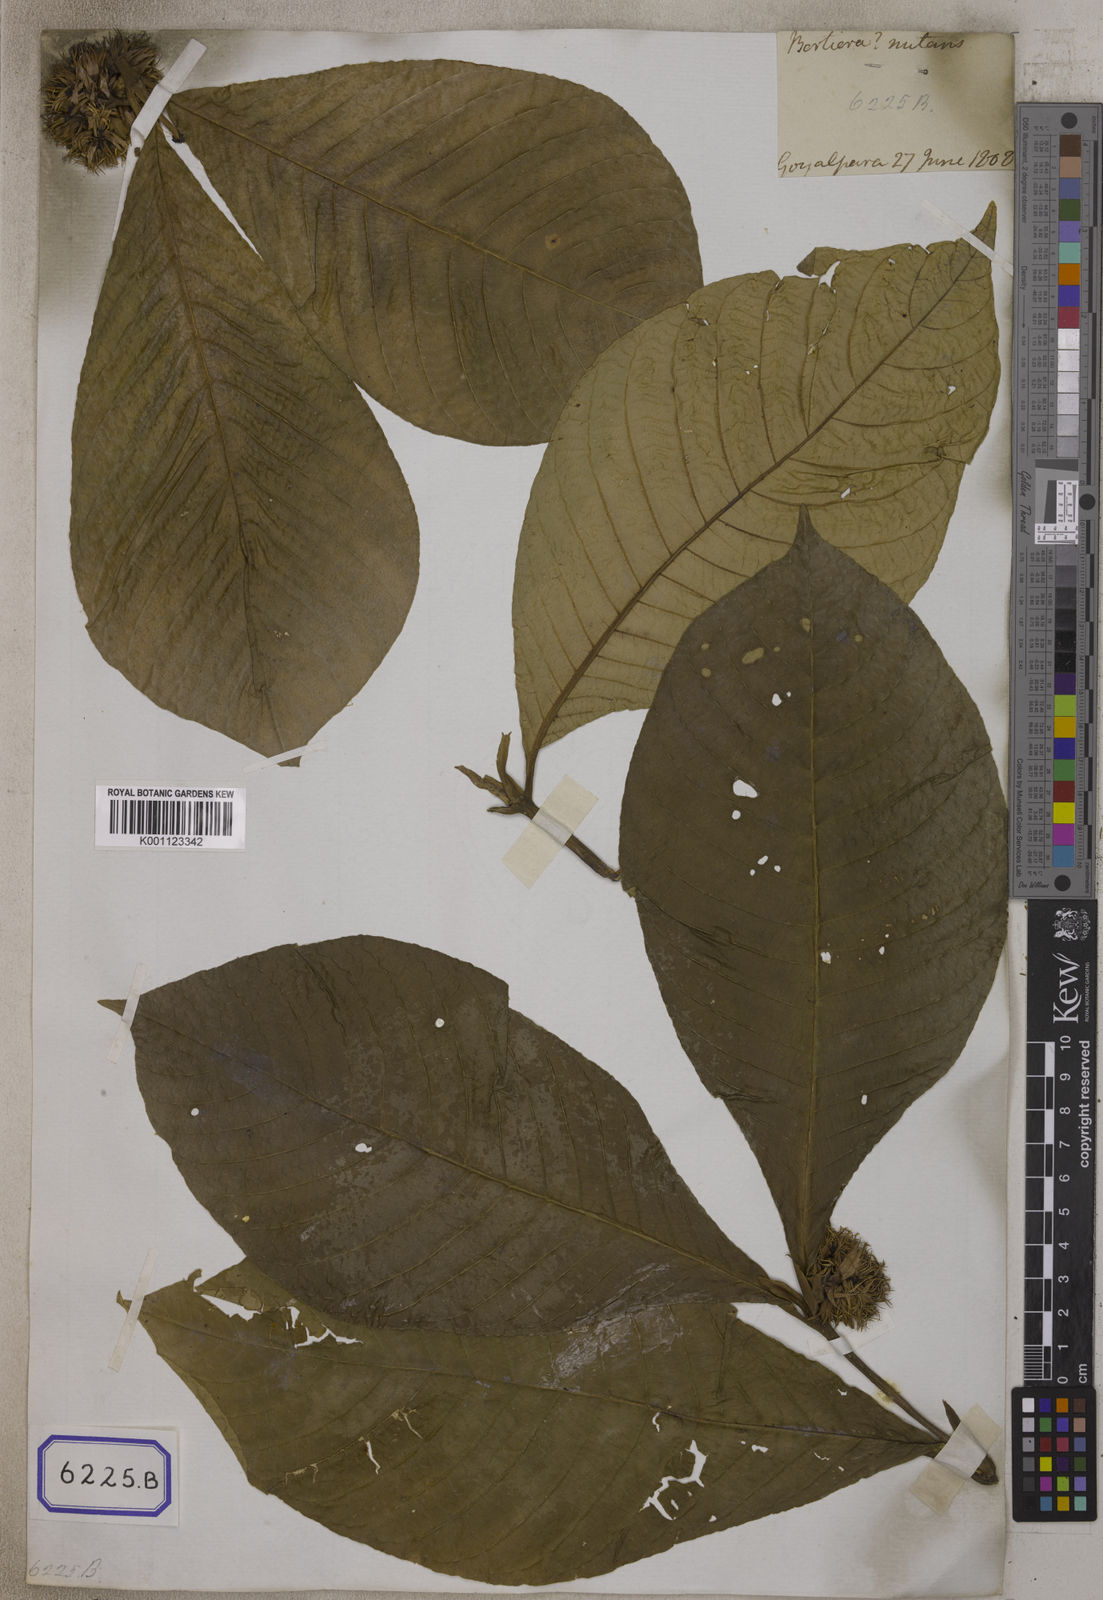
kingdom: Plantae
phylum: Tracheophyta
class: Magnoliopsida
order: Gentianales
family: Rubiaceae
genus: Myrioneuron
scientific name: Myrioneuron
